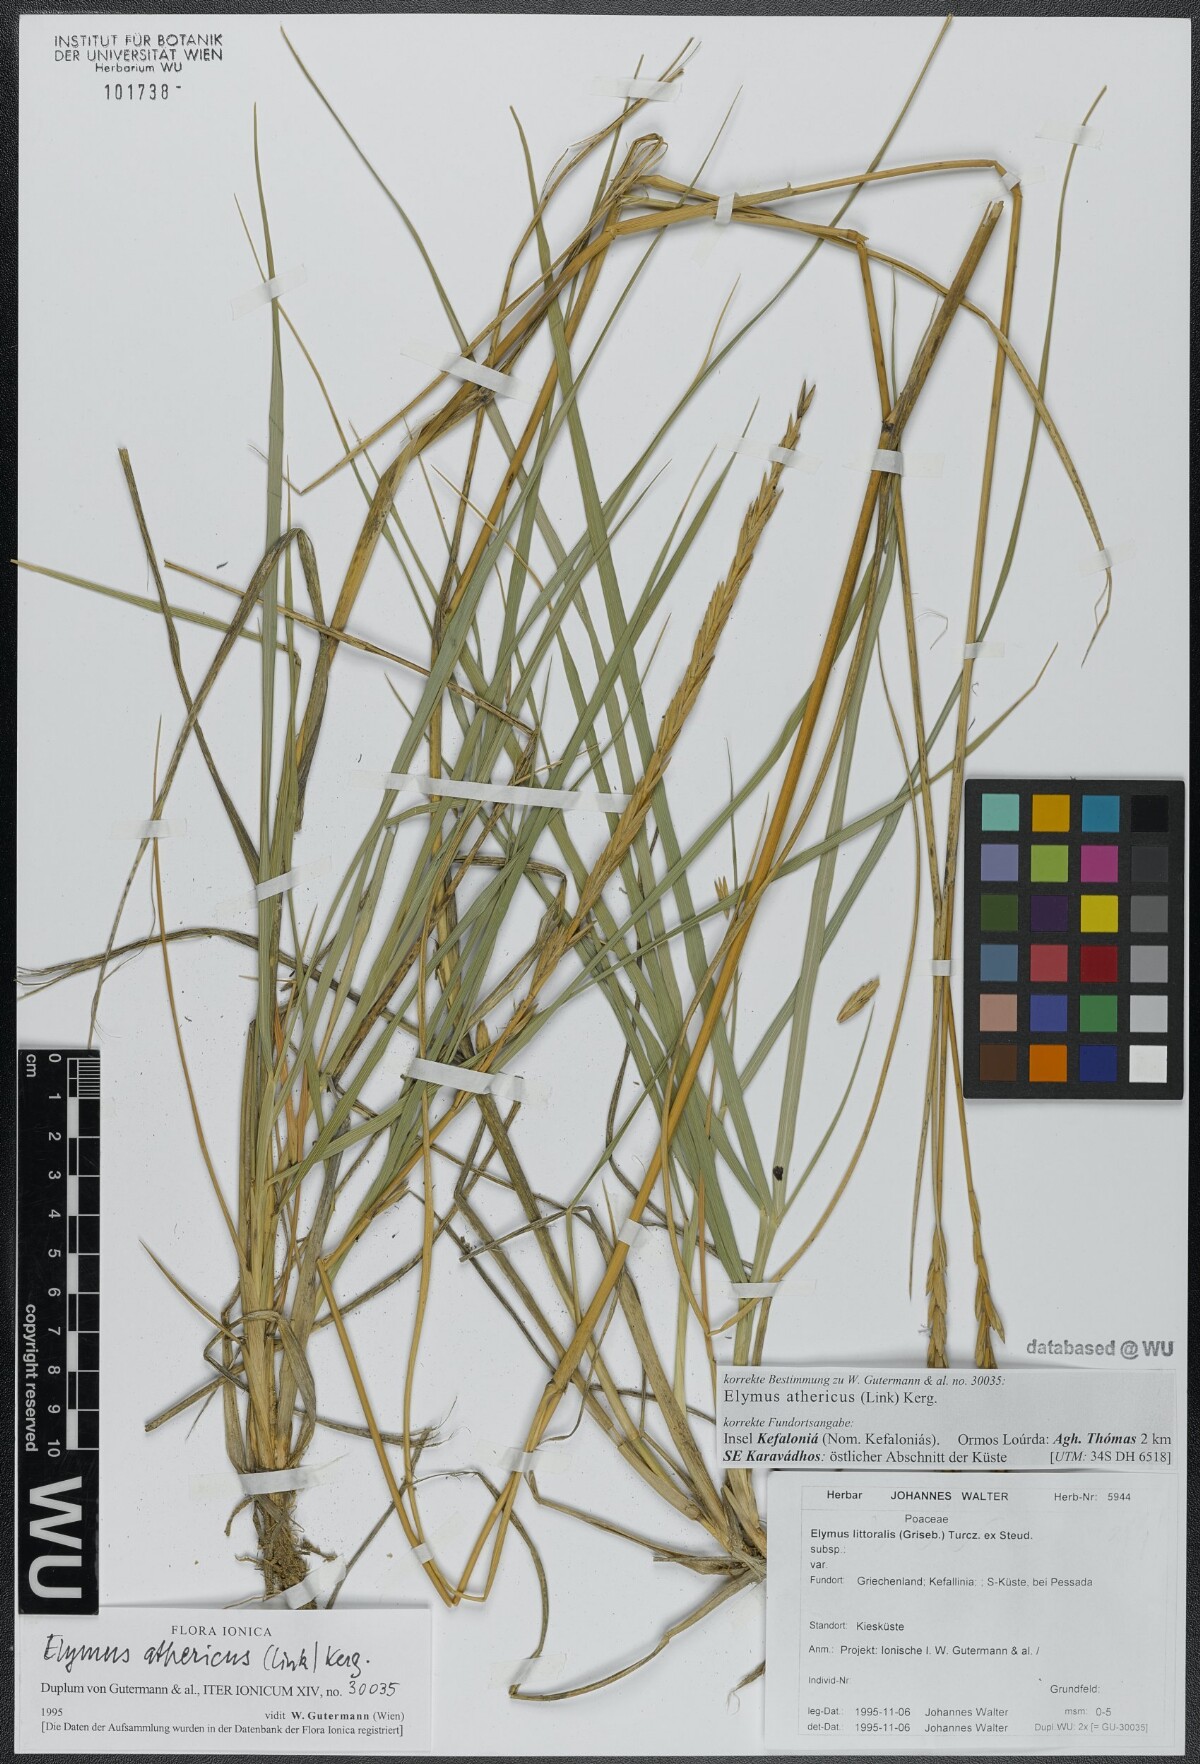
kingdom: Plantae
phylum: Tracheophyta
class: Liliopsida
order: Poales
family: Poaceae
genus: Elymus
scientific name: Elymus athericus
